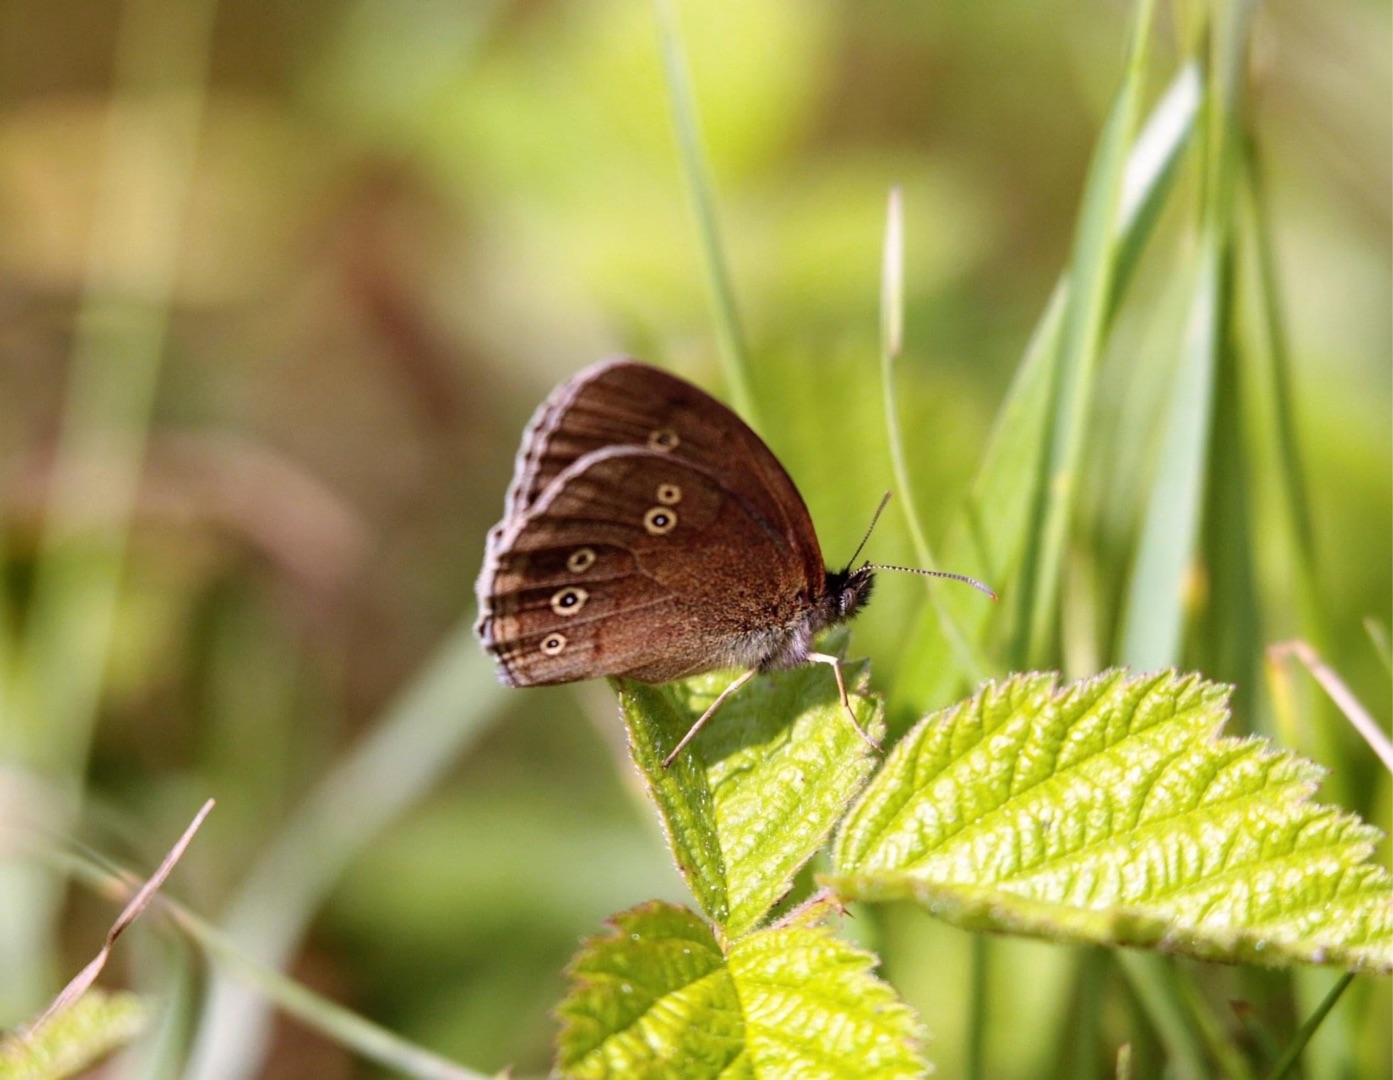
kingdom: Animalia
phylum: Arthropoda
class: Insecta
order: Lepidoptera
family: Nymphalidae
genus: Aphantopus
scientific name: Aphantopus hyperantus
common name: Engrandøje
